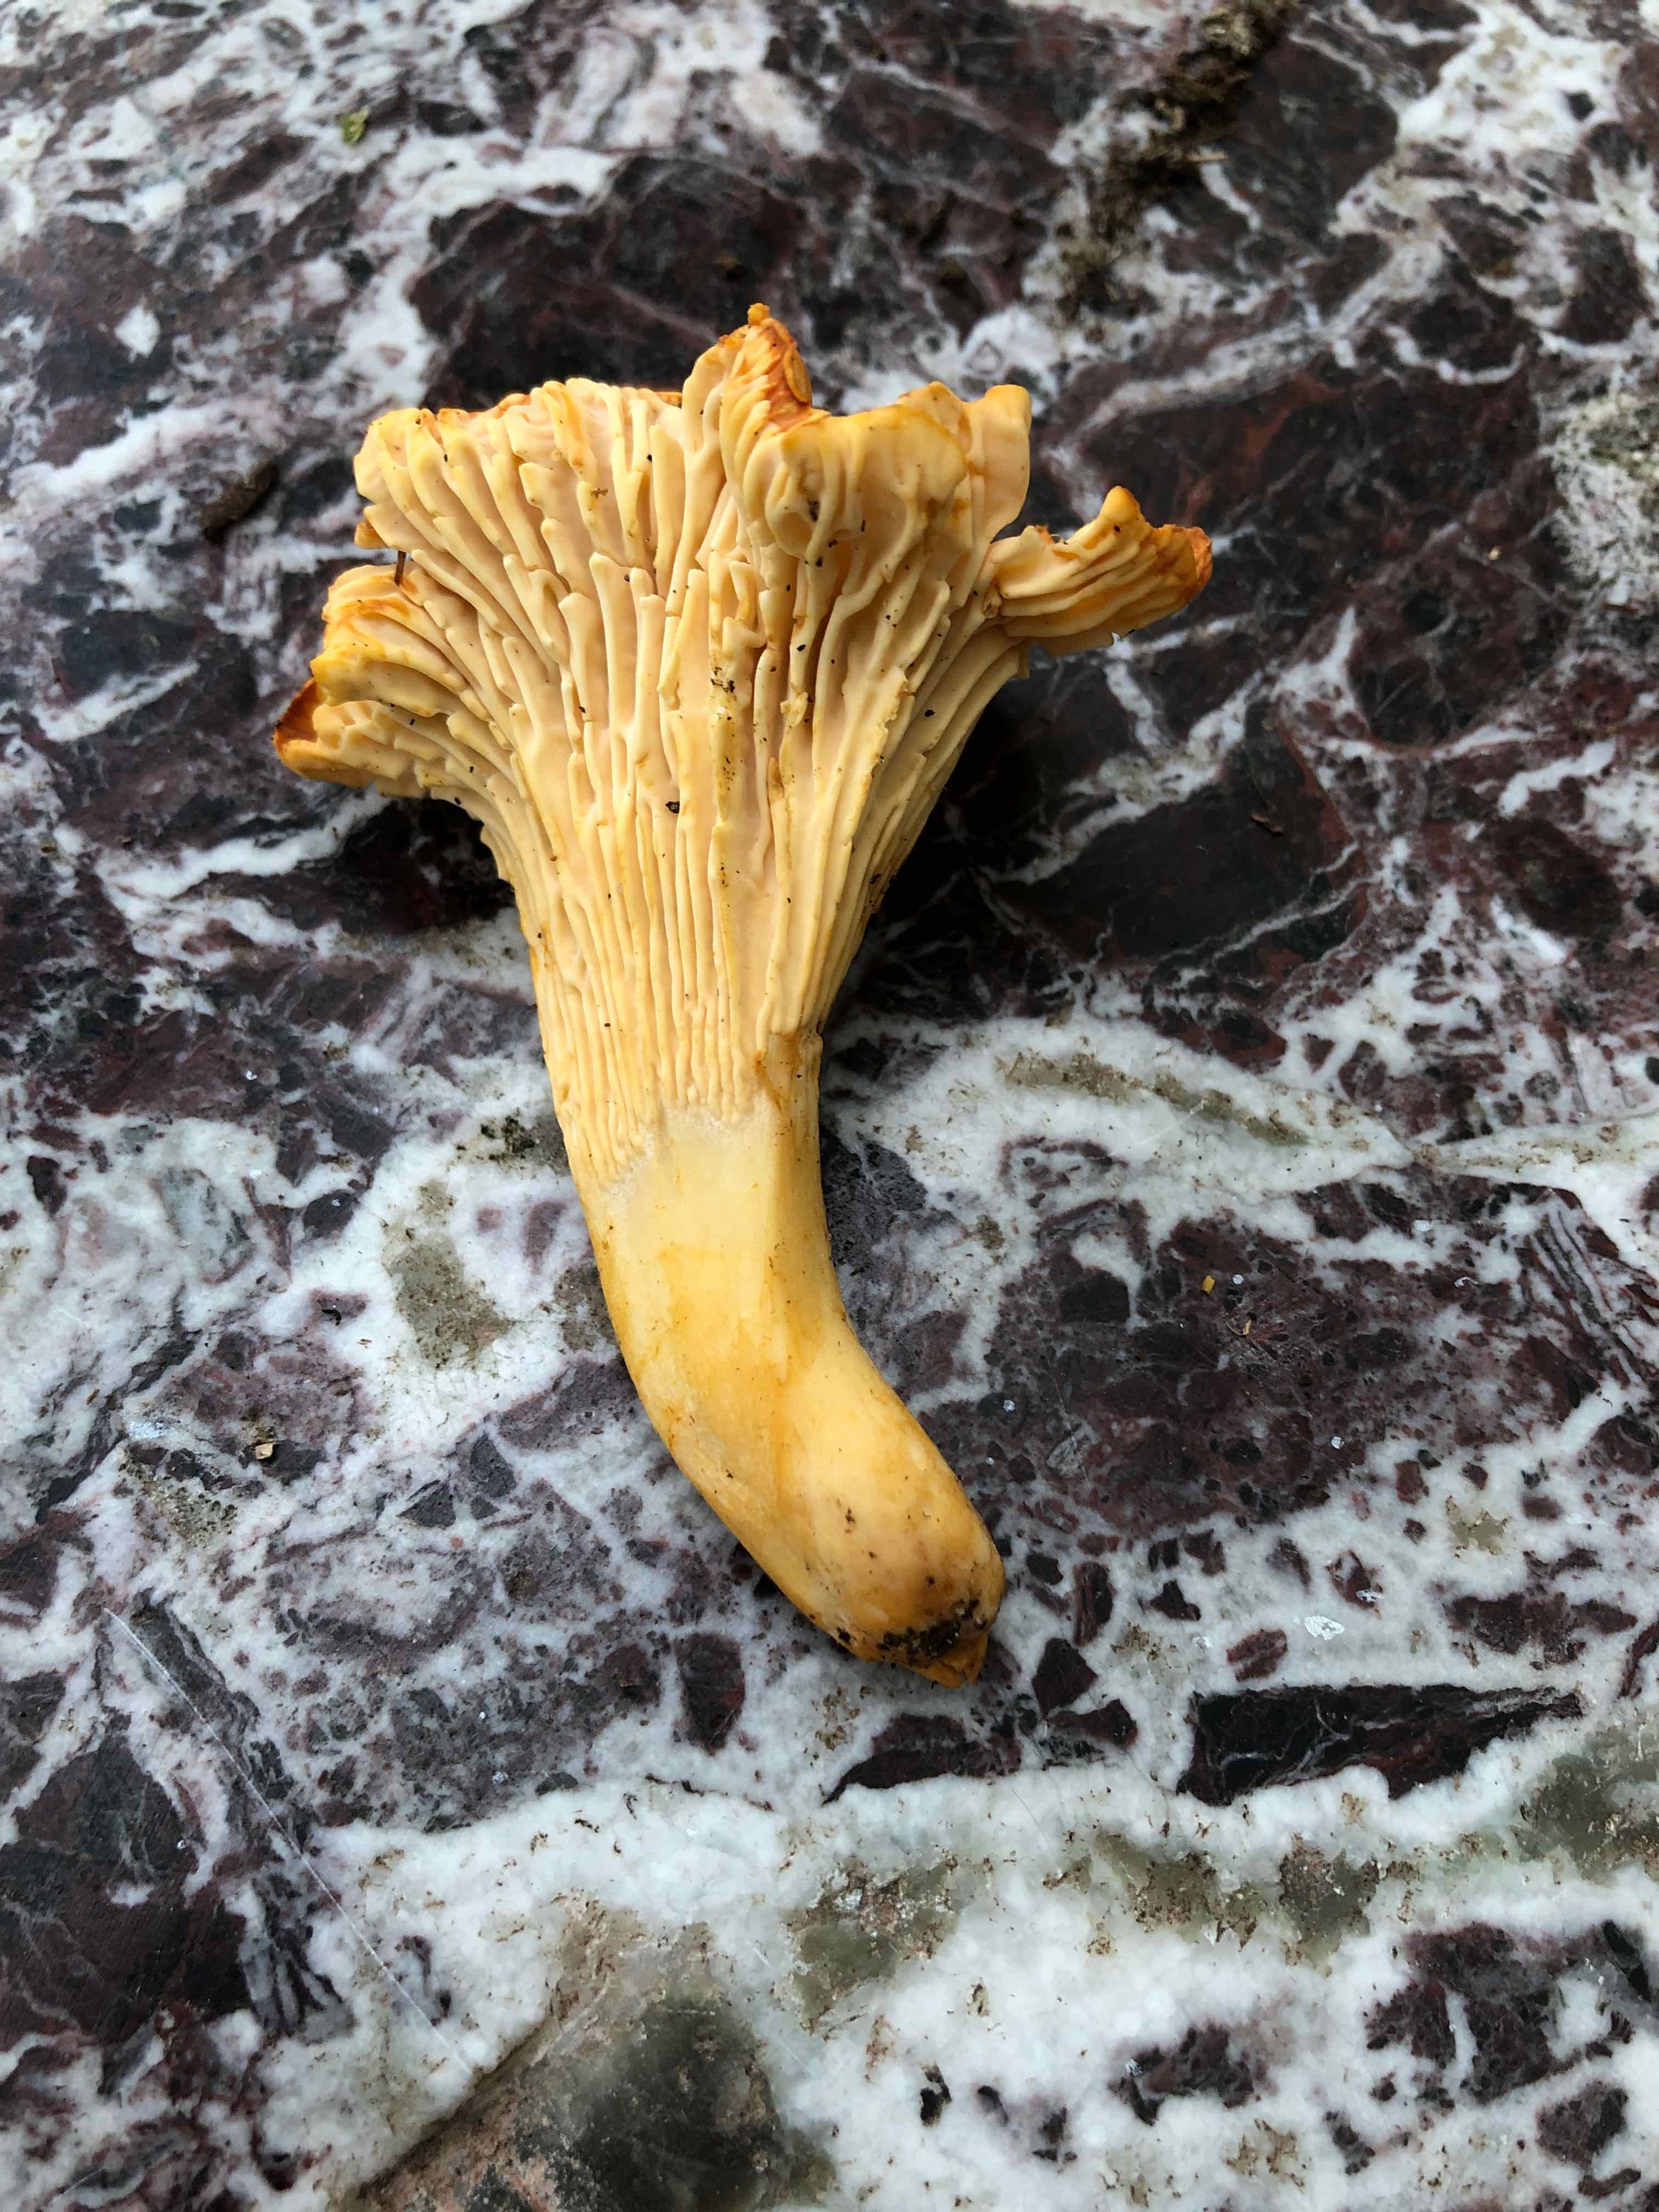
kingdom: Fungi
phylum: Basidiomycota
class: Agaricomycetes
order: Cantharellales
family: Hydnaceae
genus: Cantharellus
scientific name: Cantharellus cibarius
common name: almindelig kantarel
